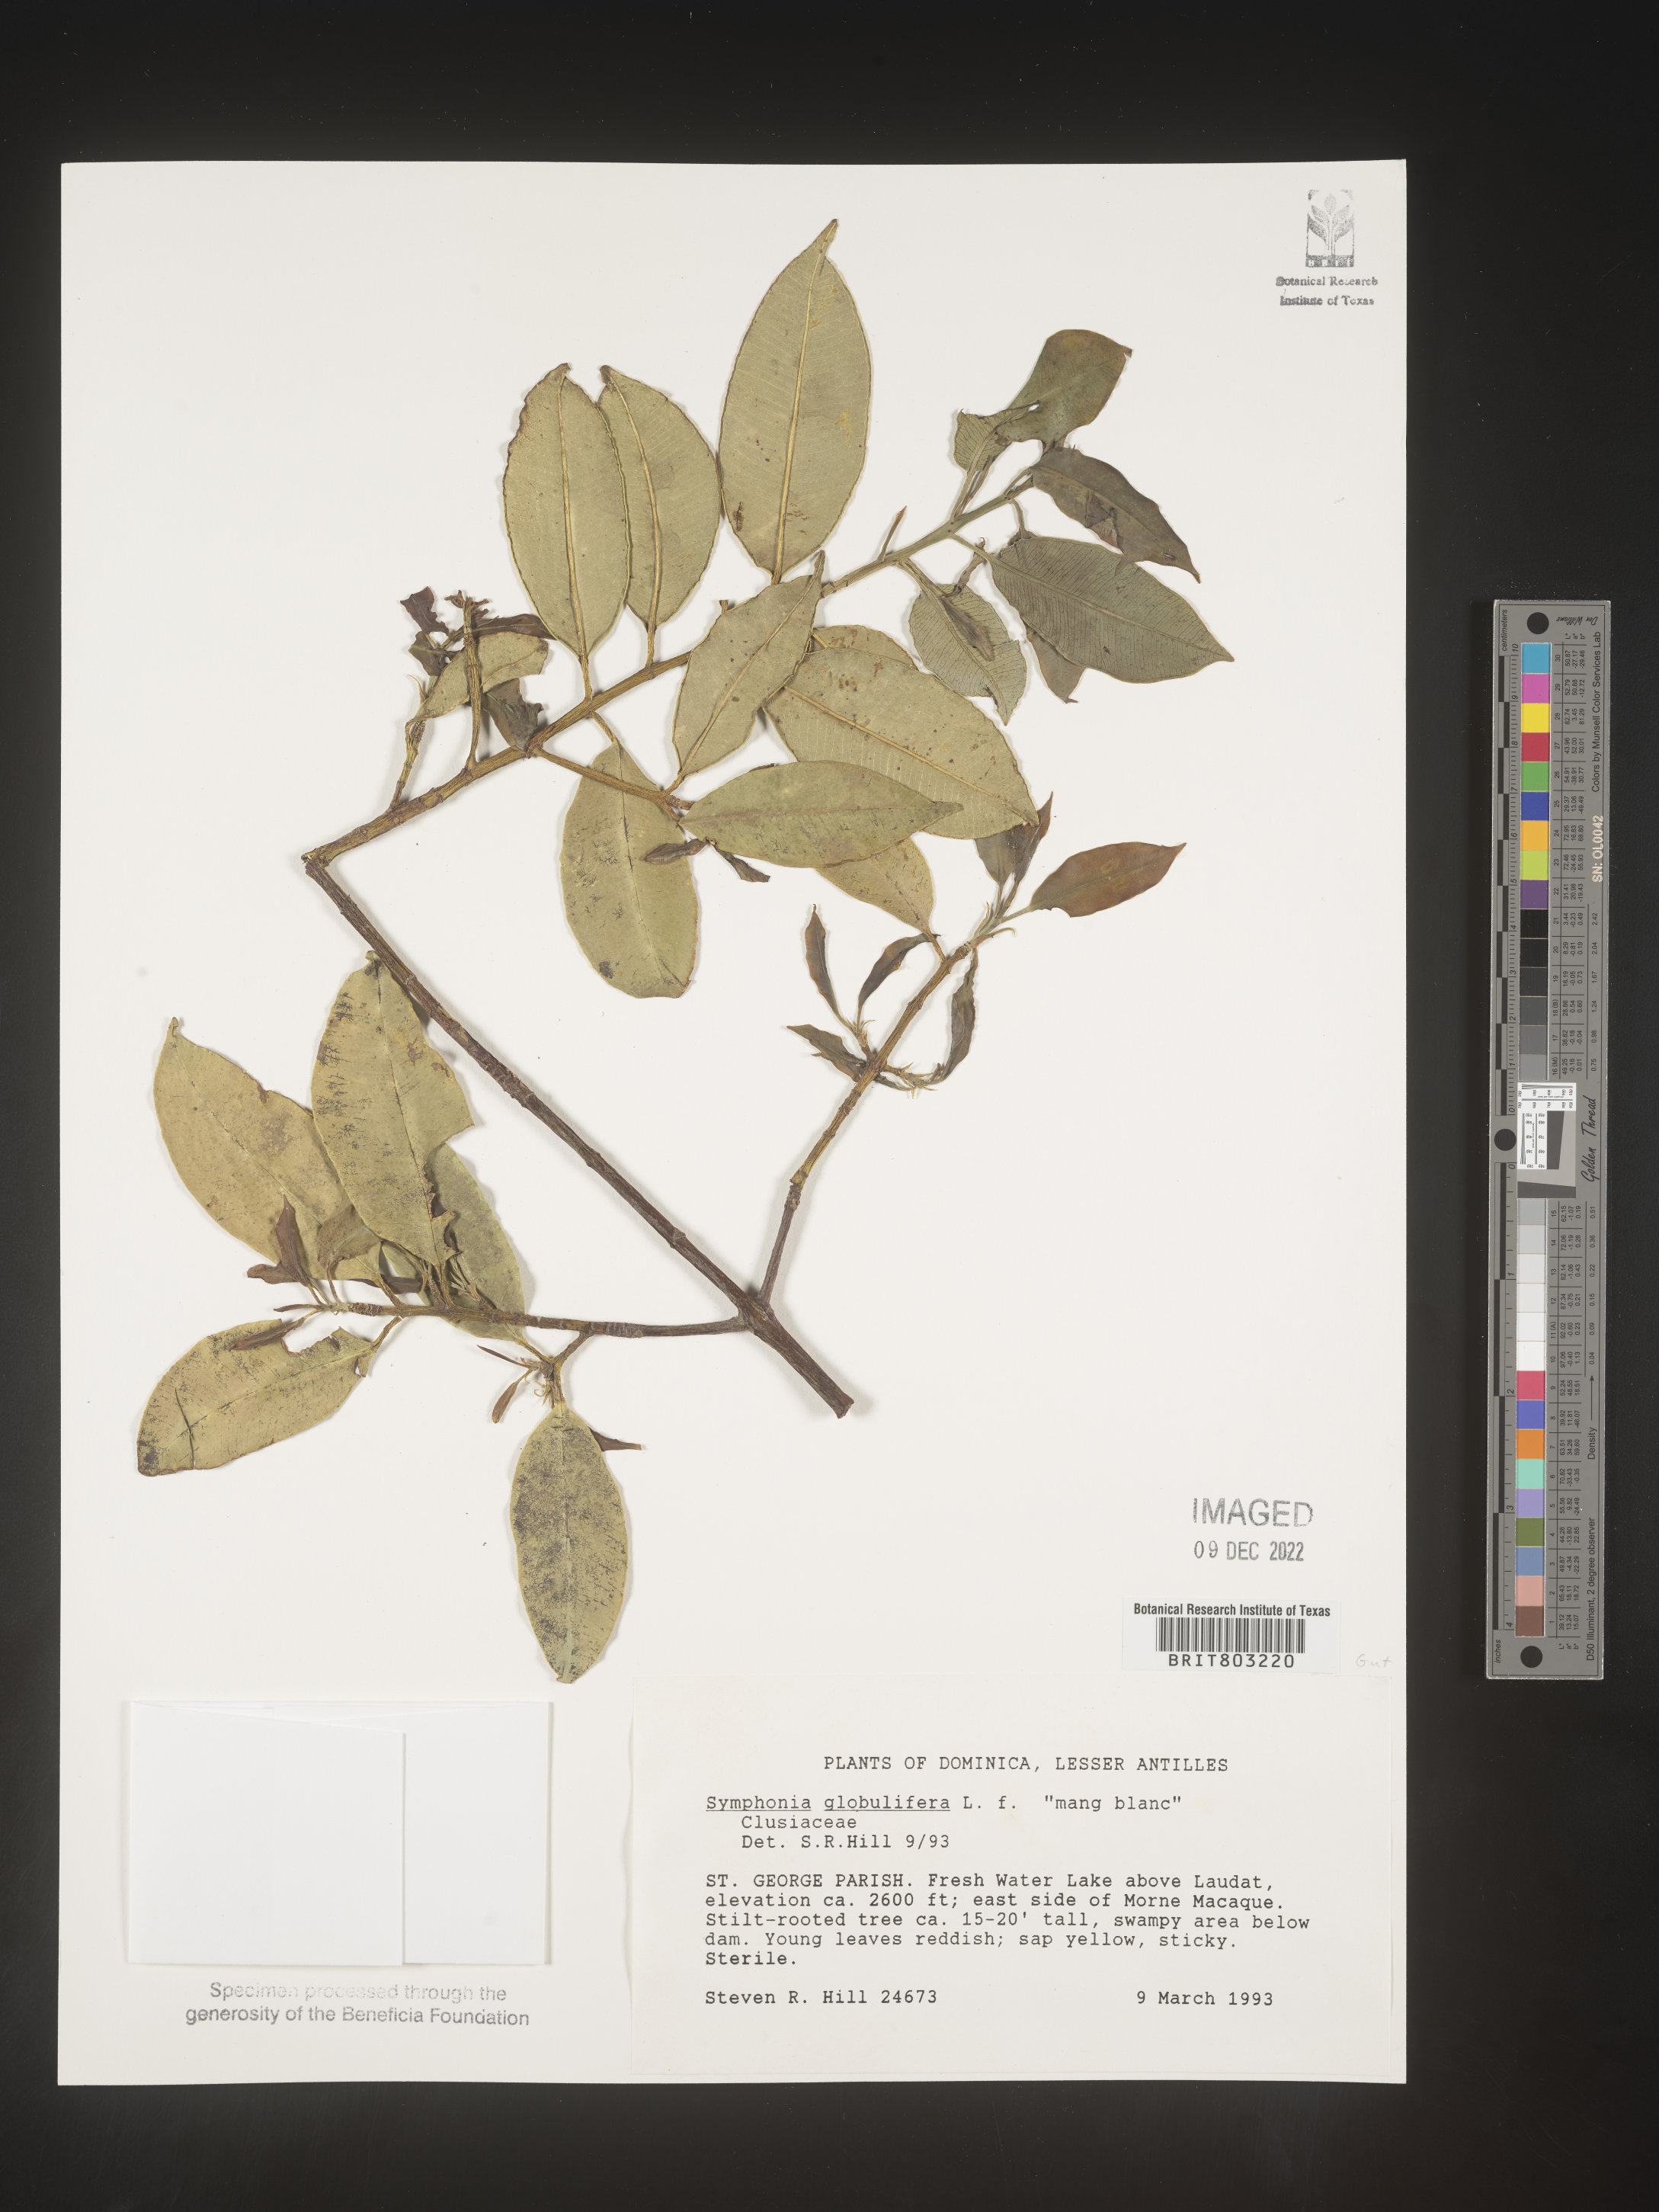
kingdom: Plantae
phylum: Tracheophyta
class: Magnoliopsida
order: Malpighiales
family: Clusiaceae
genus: Symphonia
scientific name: Symphonia
